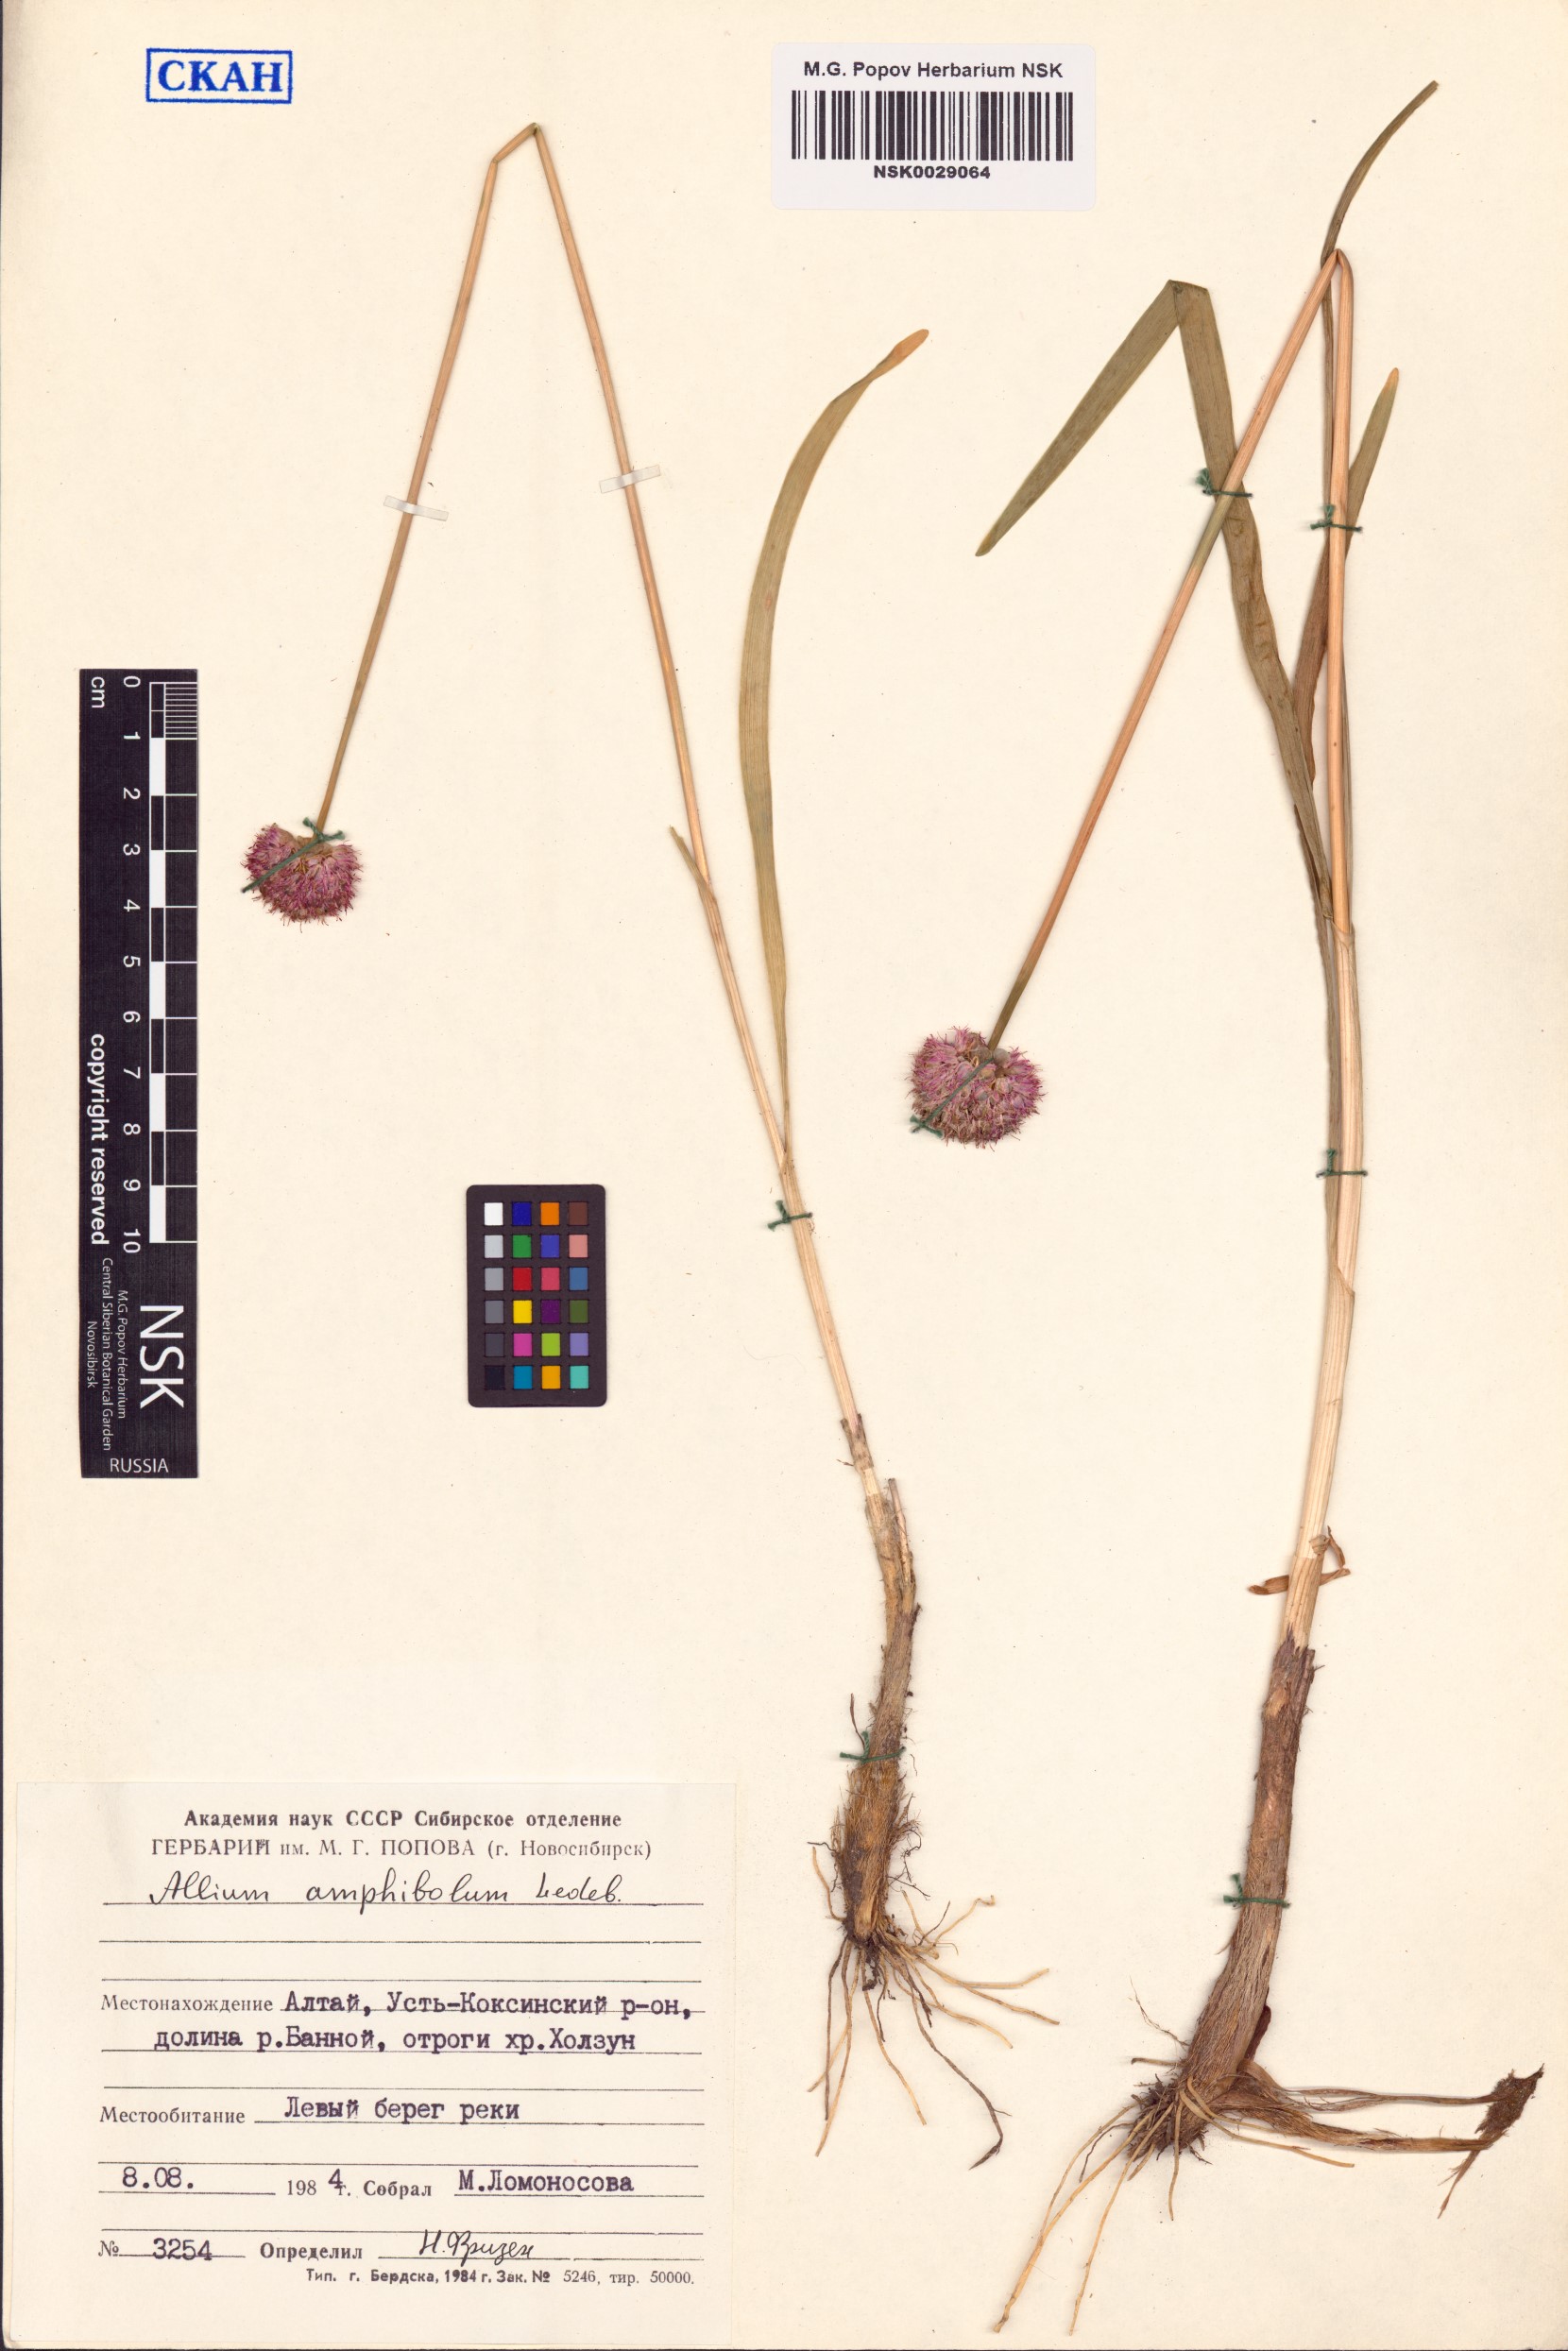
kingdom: Plantae
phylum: Tracheophyta
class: Liliopsida
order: Asparagales
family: Amaryllidaceae
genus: Allium
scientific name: Allium amphibolum
